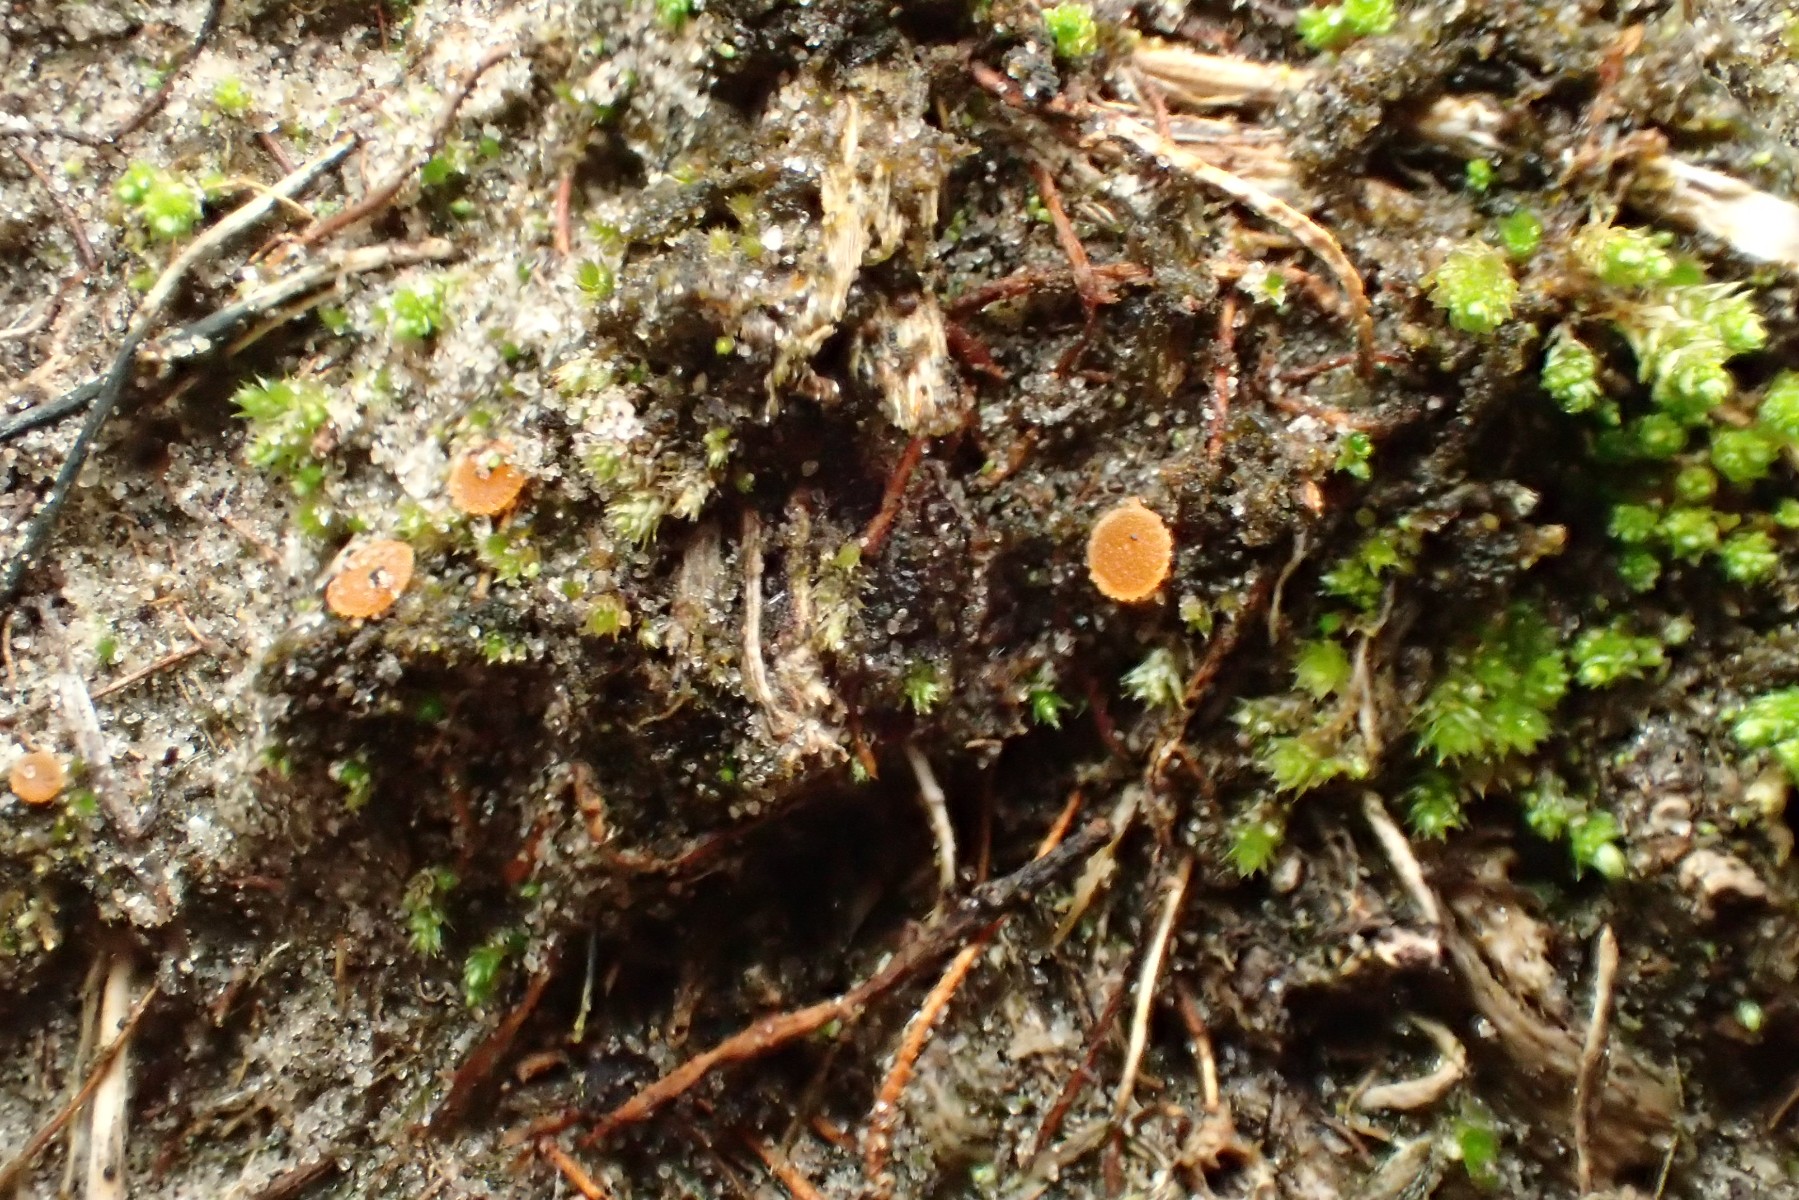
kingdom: Fungi
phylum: Ascomycota
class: Pezizomycetes
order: Pezizales
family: Pyronemataceae
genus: Octospora
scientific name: Octospora coccinea
